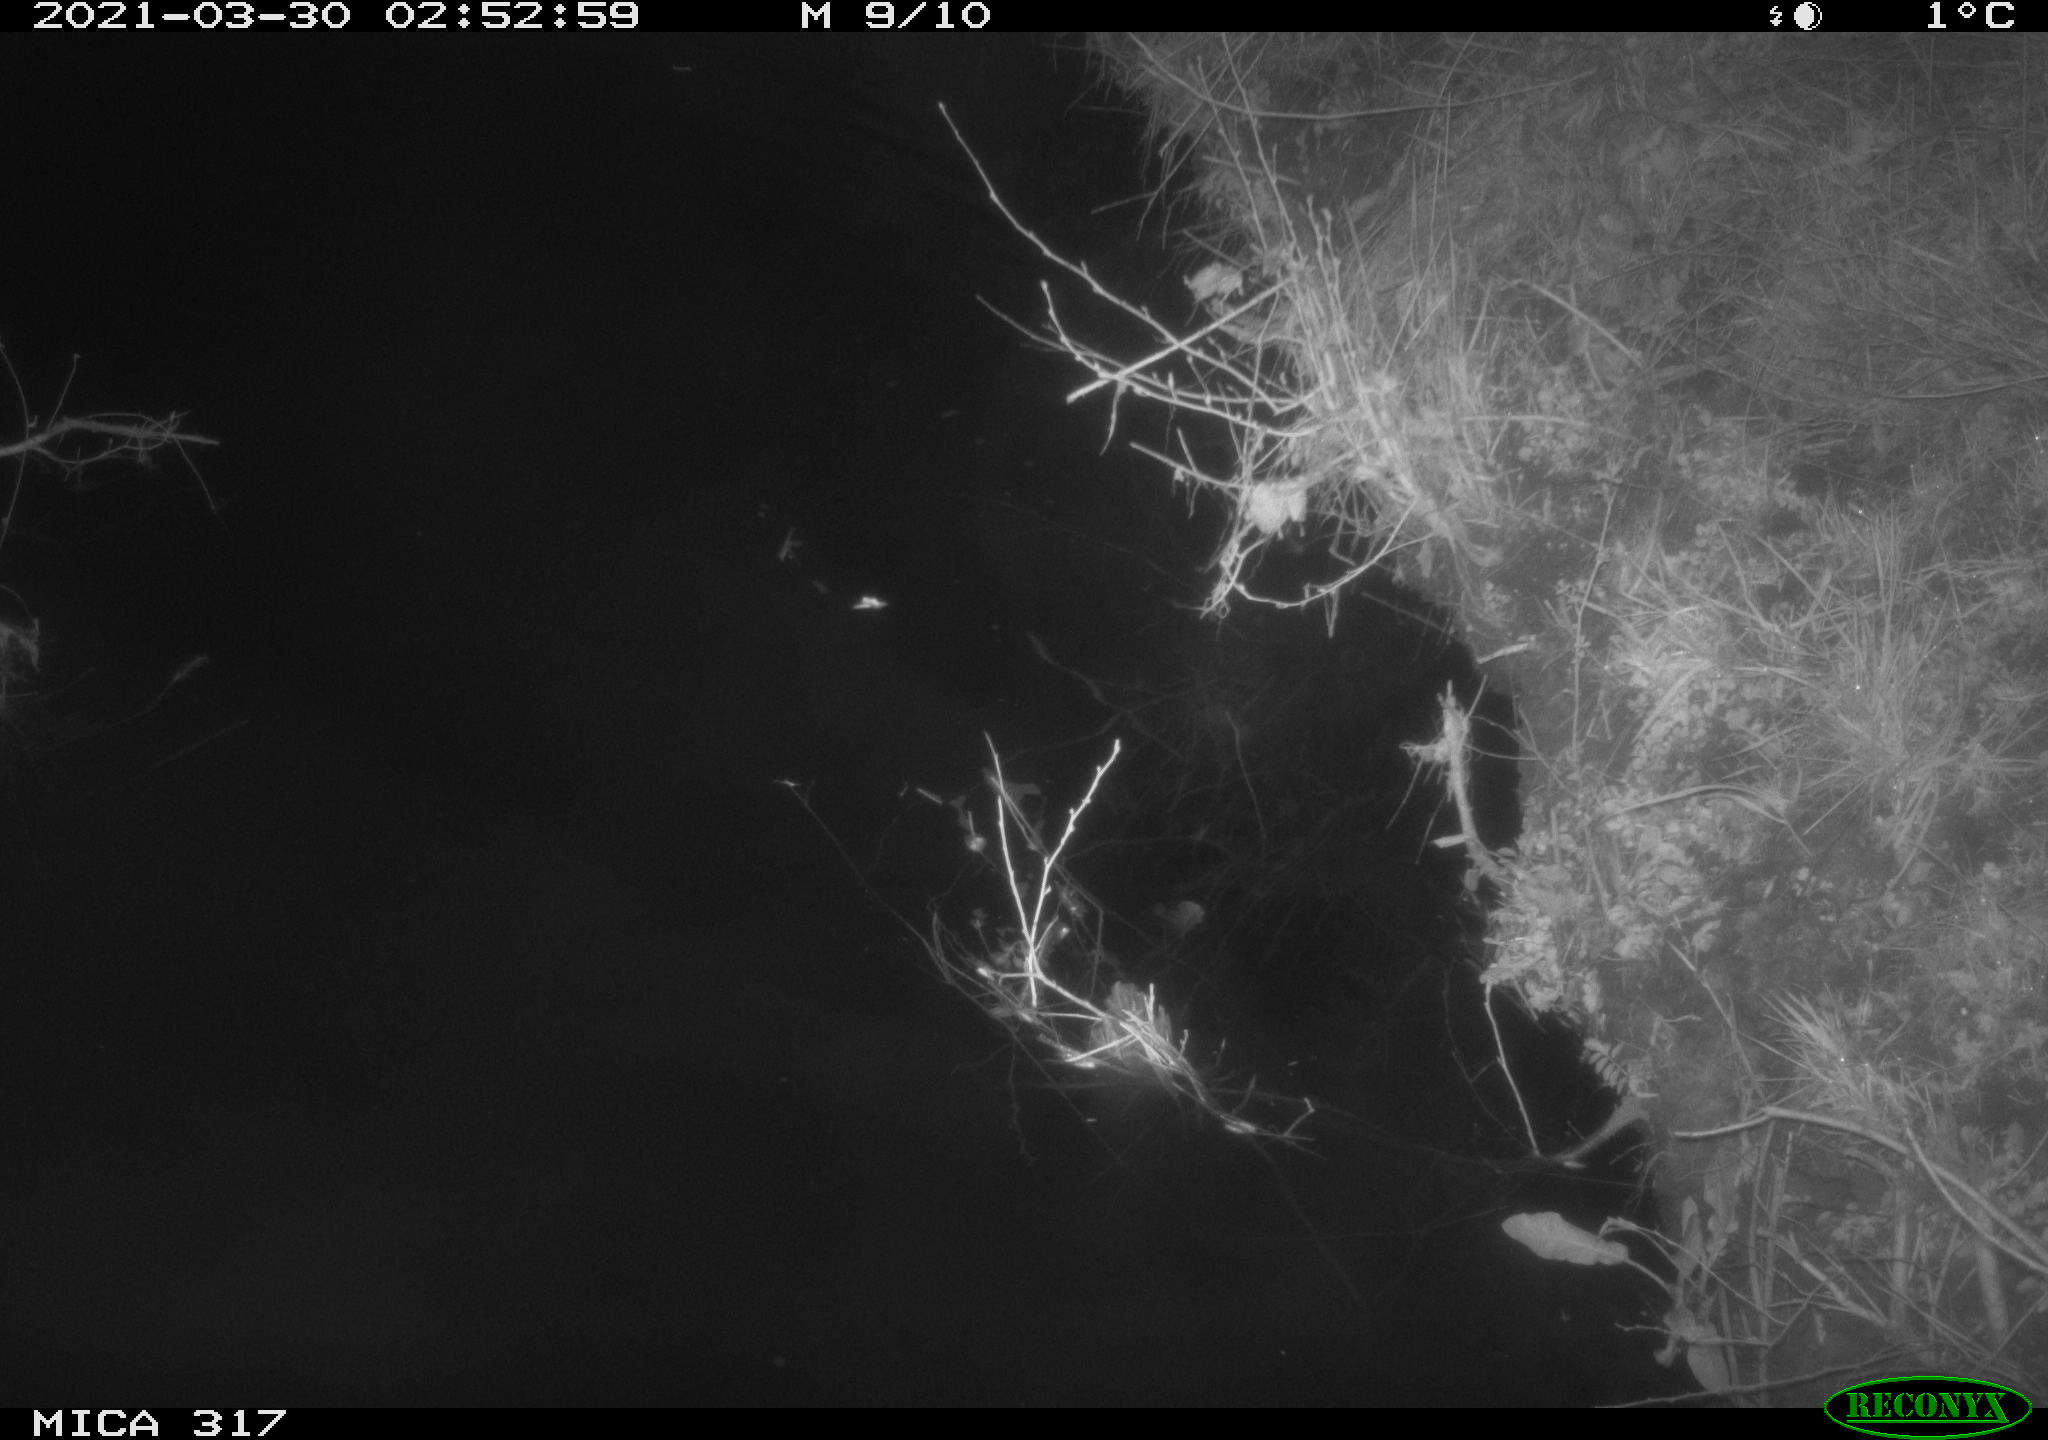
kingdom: Animalia
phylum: Chordata
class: Aves
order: Gruiformes
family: Rallidae
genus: Fulica
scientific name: Fulica atra
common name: Eurasian coot
